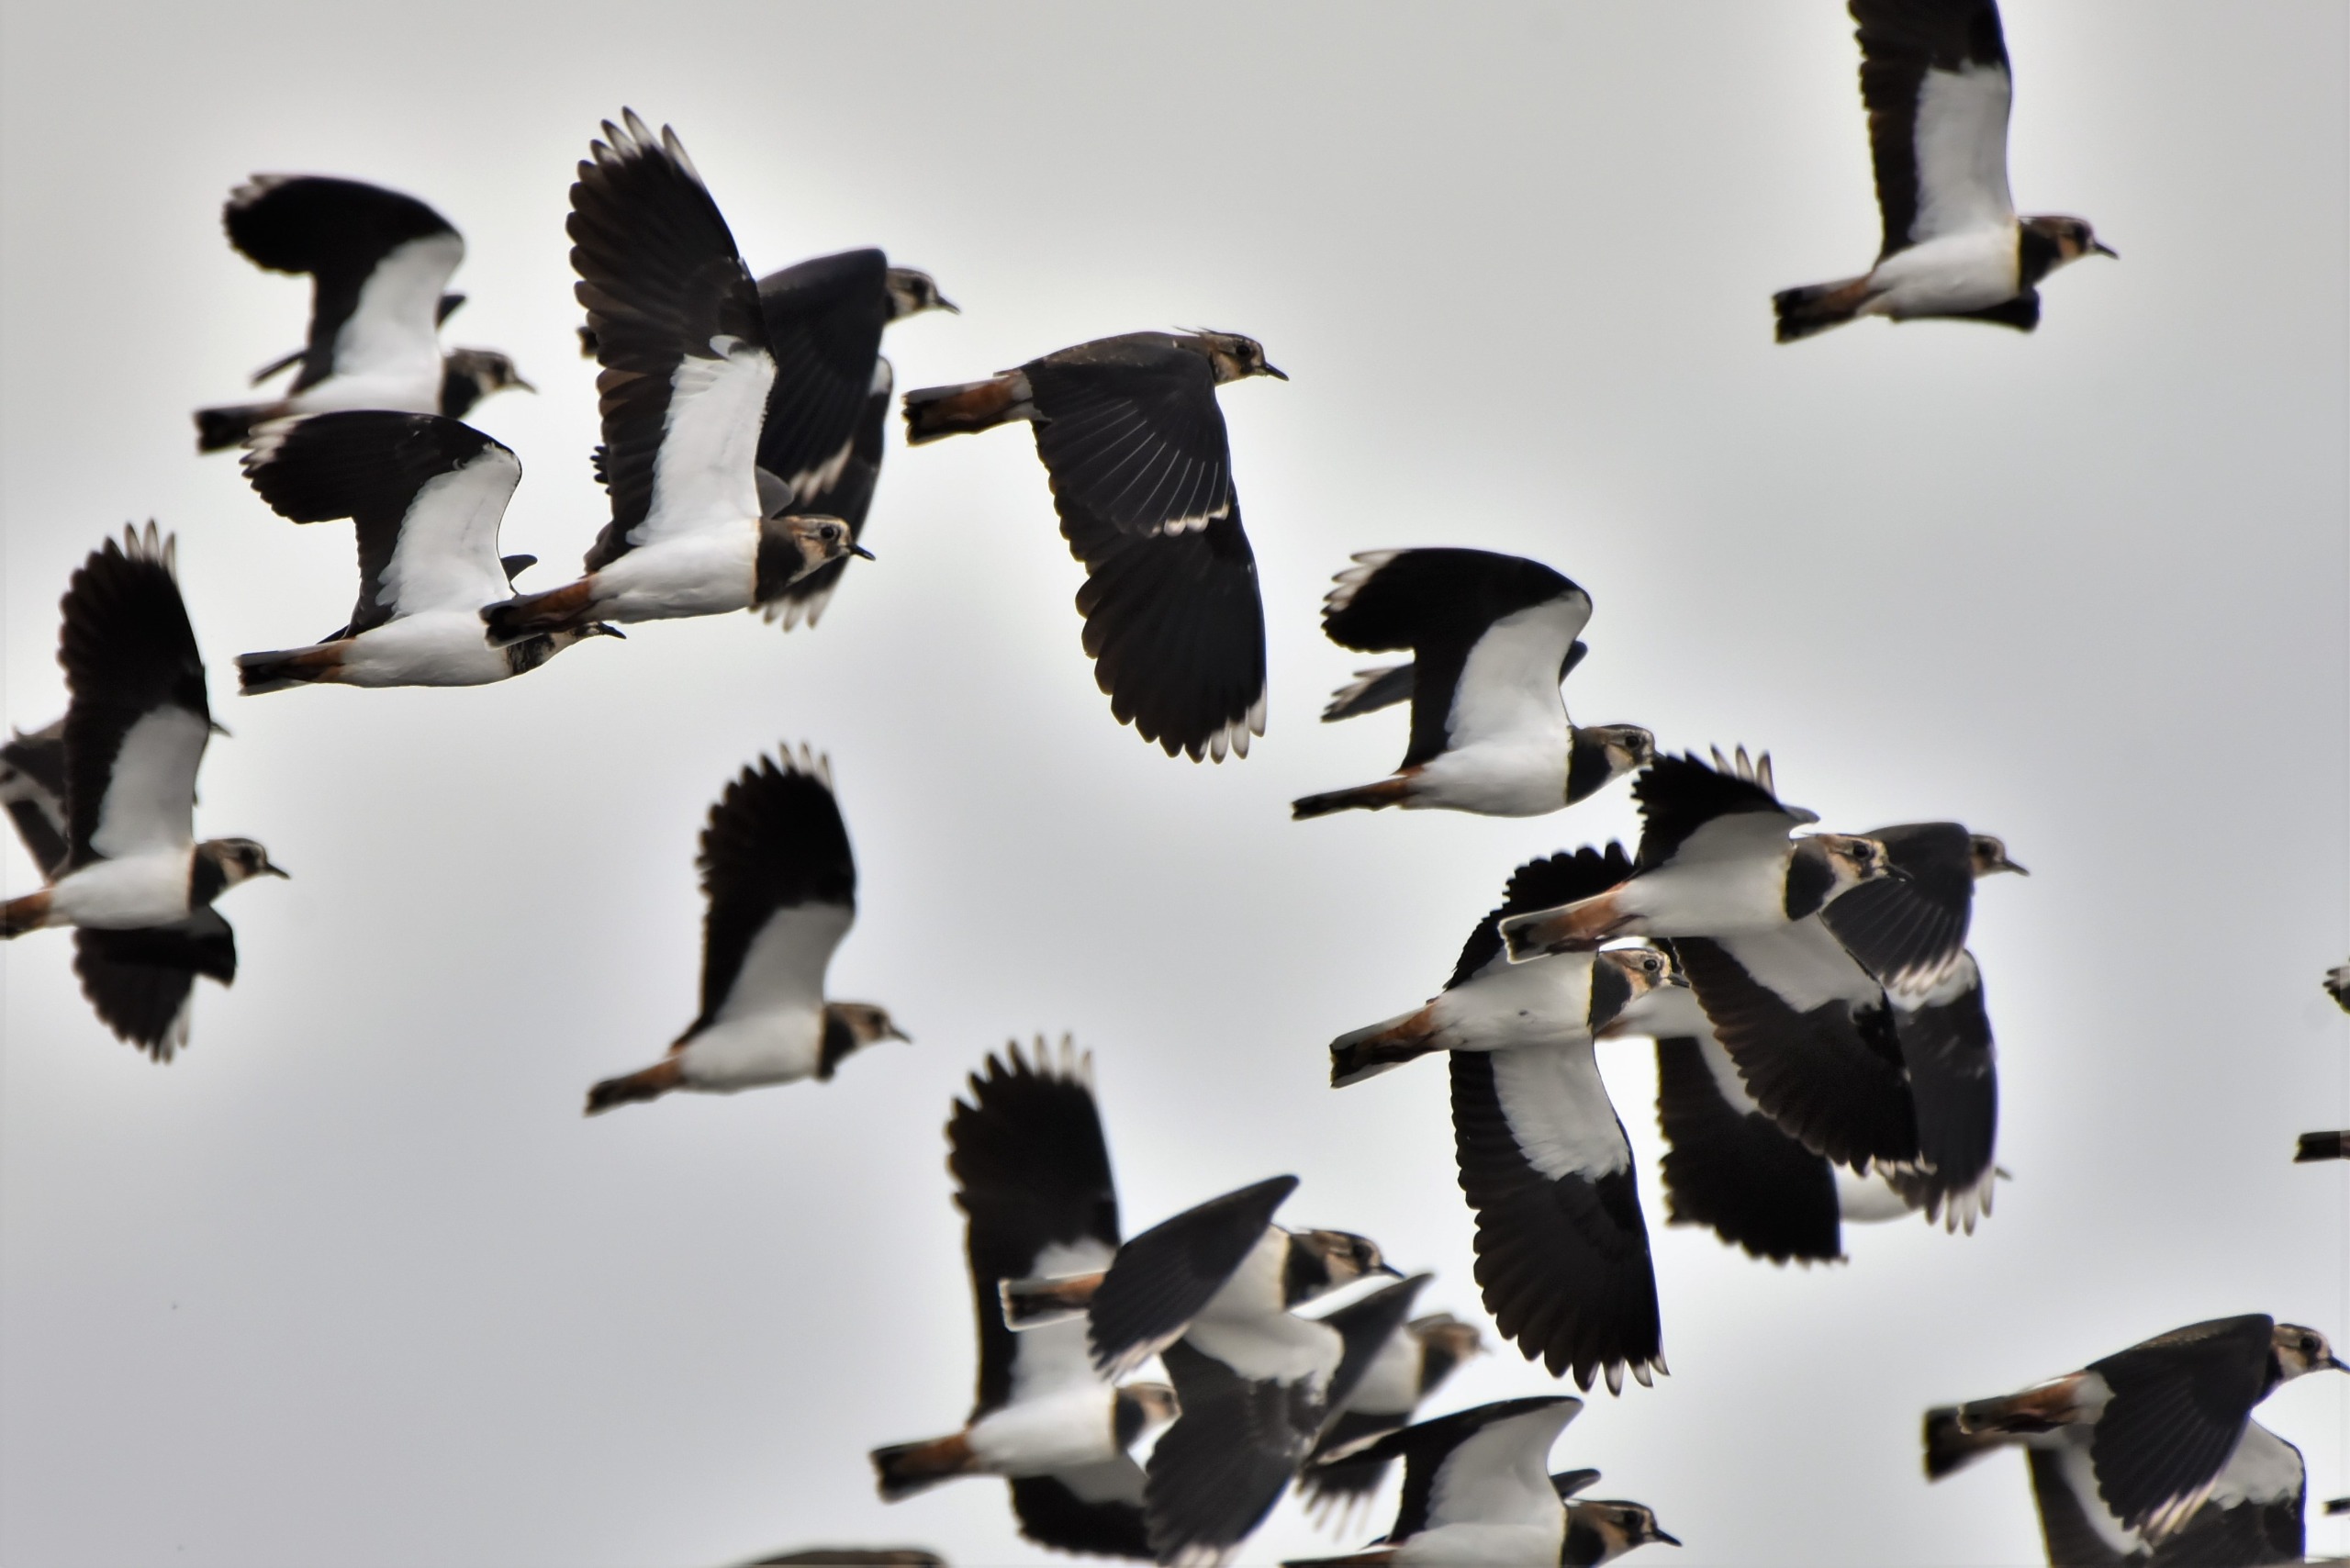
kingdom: Animalia
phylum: Chordata
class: Aves
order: Charadriiformes
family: Charadriidae
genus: Vanellus
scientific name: Vanellus vanellus
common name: Vibe
